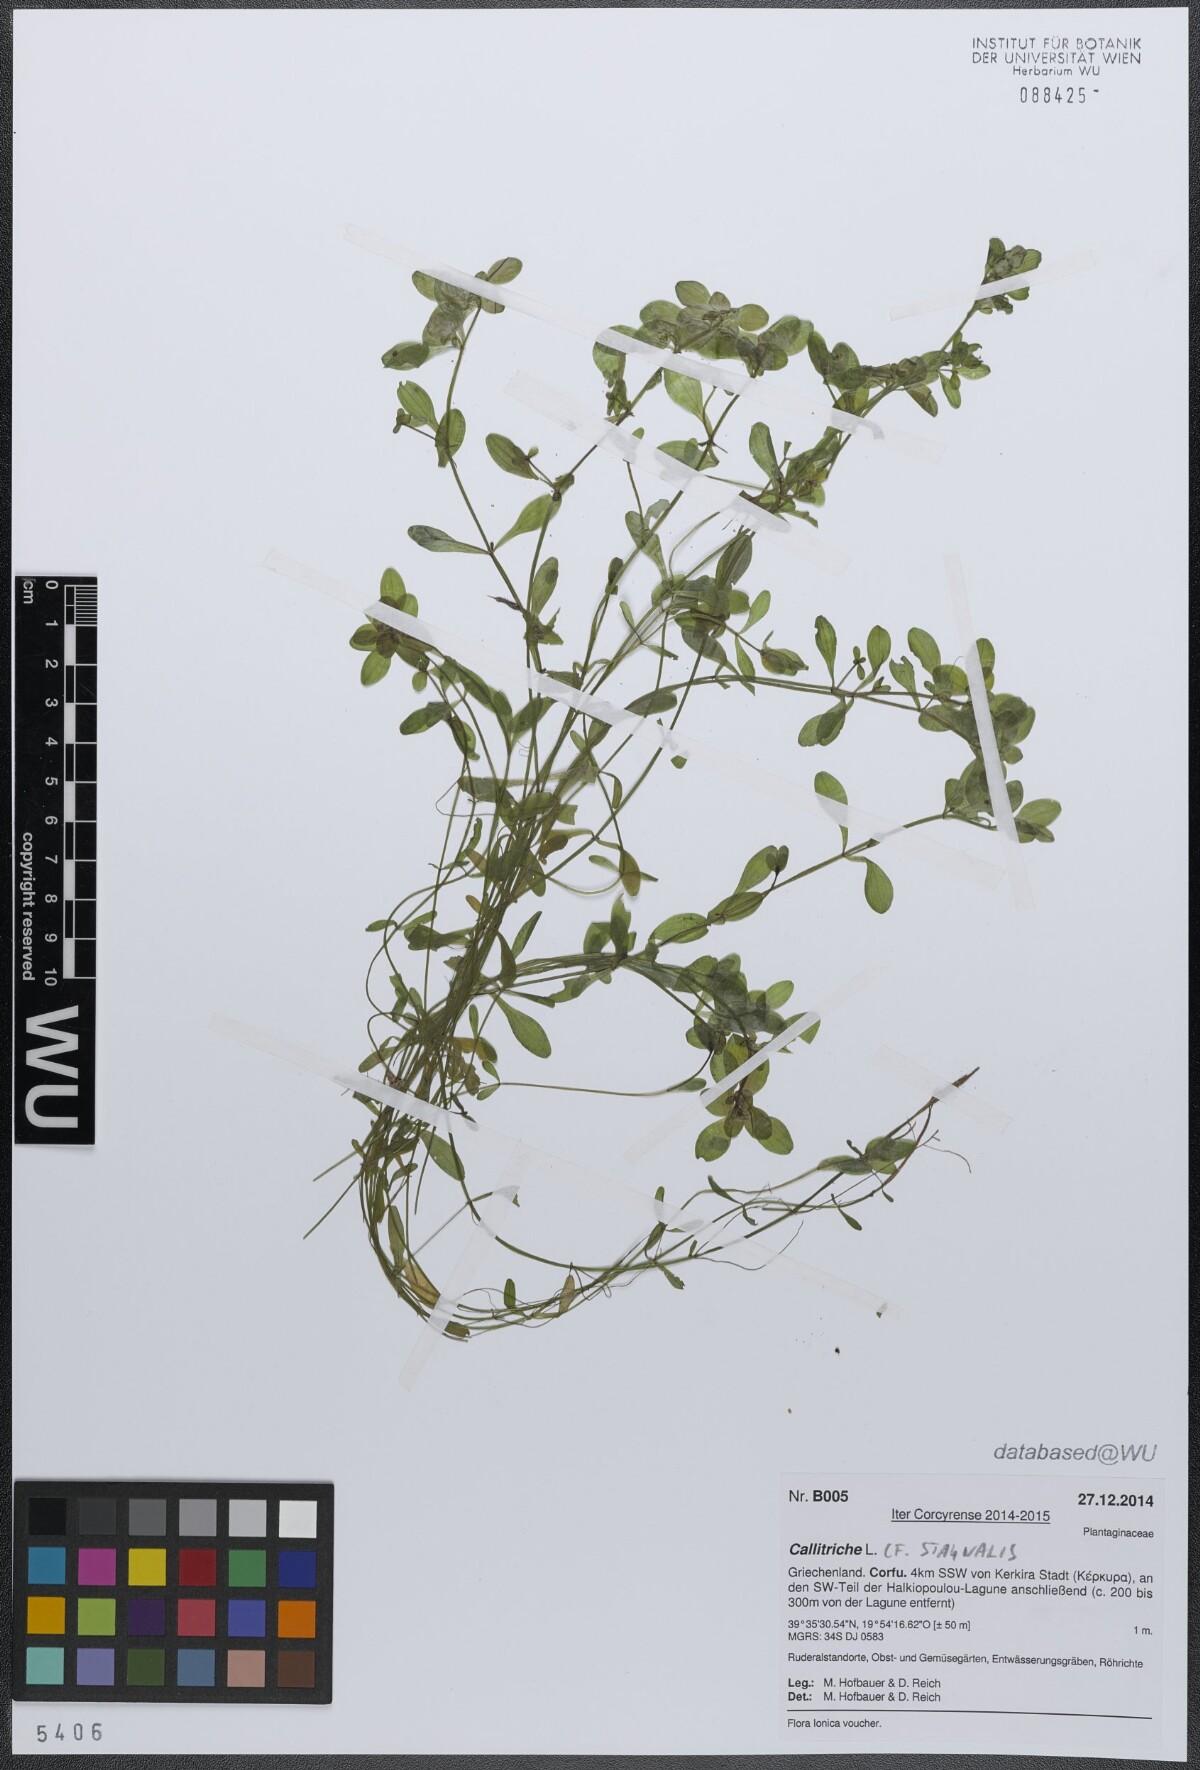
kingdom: Plantae
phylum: Tracheophyta
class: Magnoliopsida
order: Lamiales
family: Plantaginaceae
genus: Callitriche
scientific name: Callitriche stagnalis
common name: Common water-starwort
